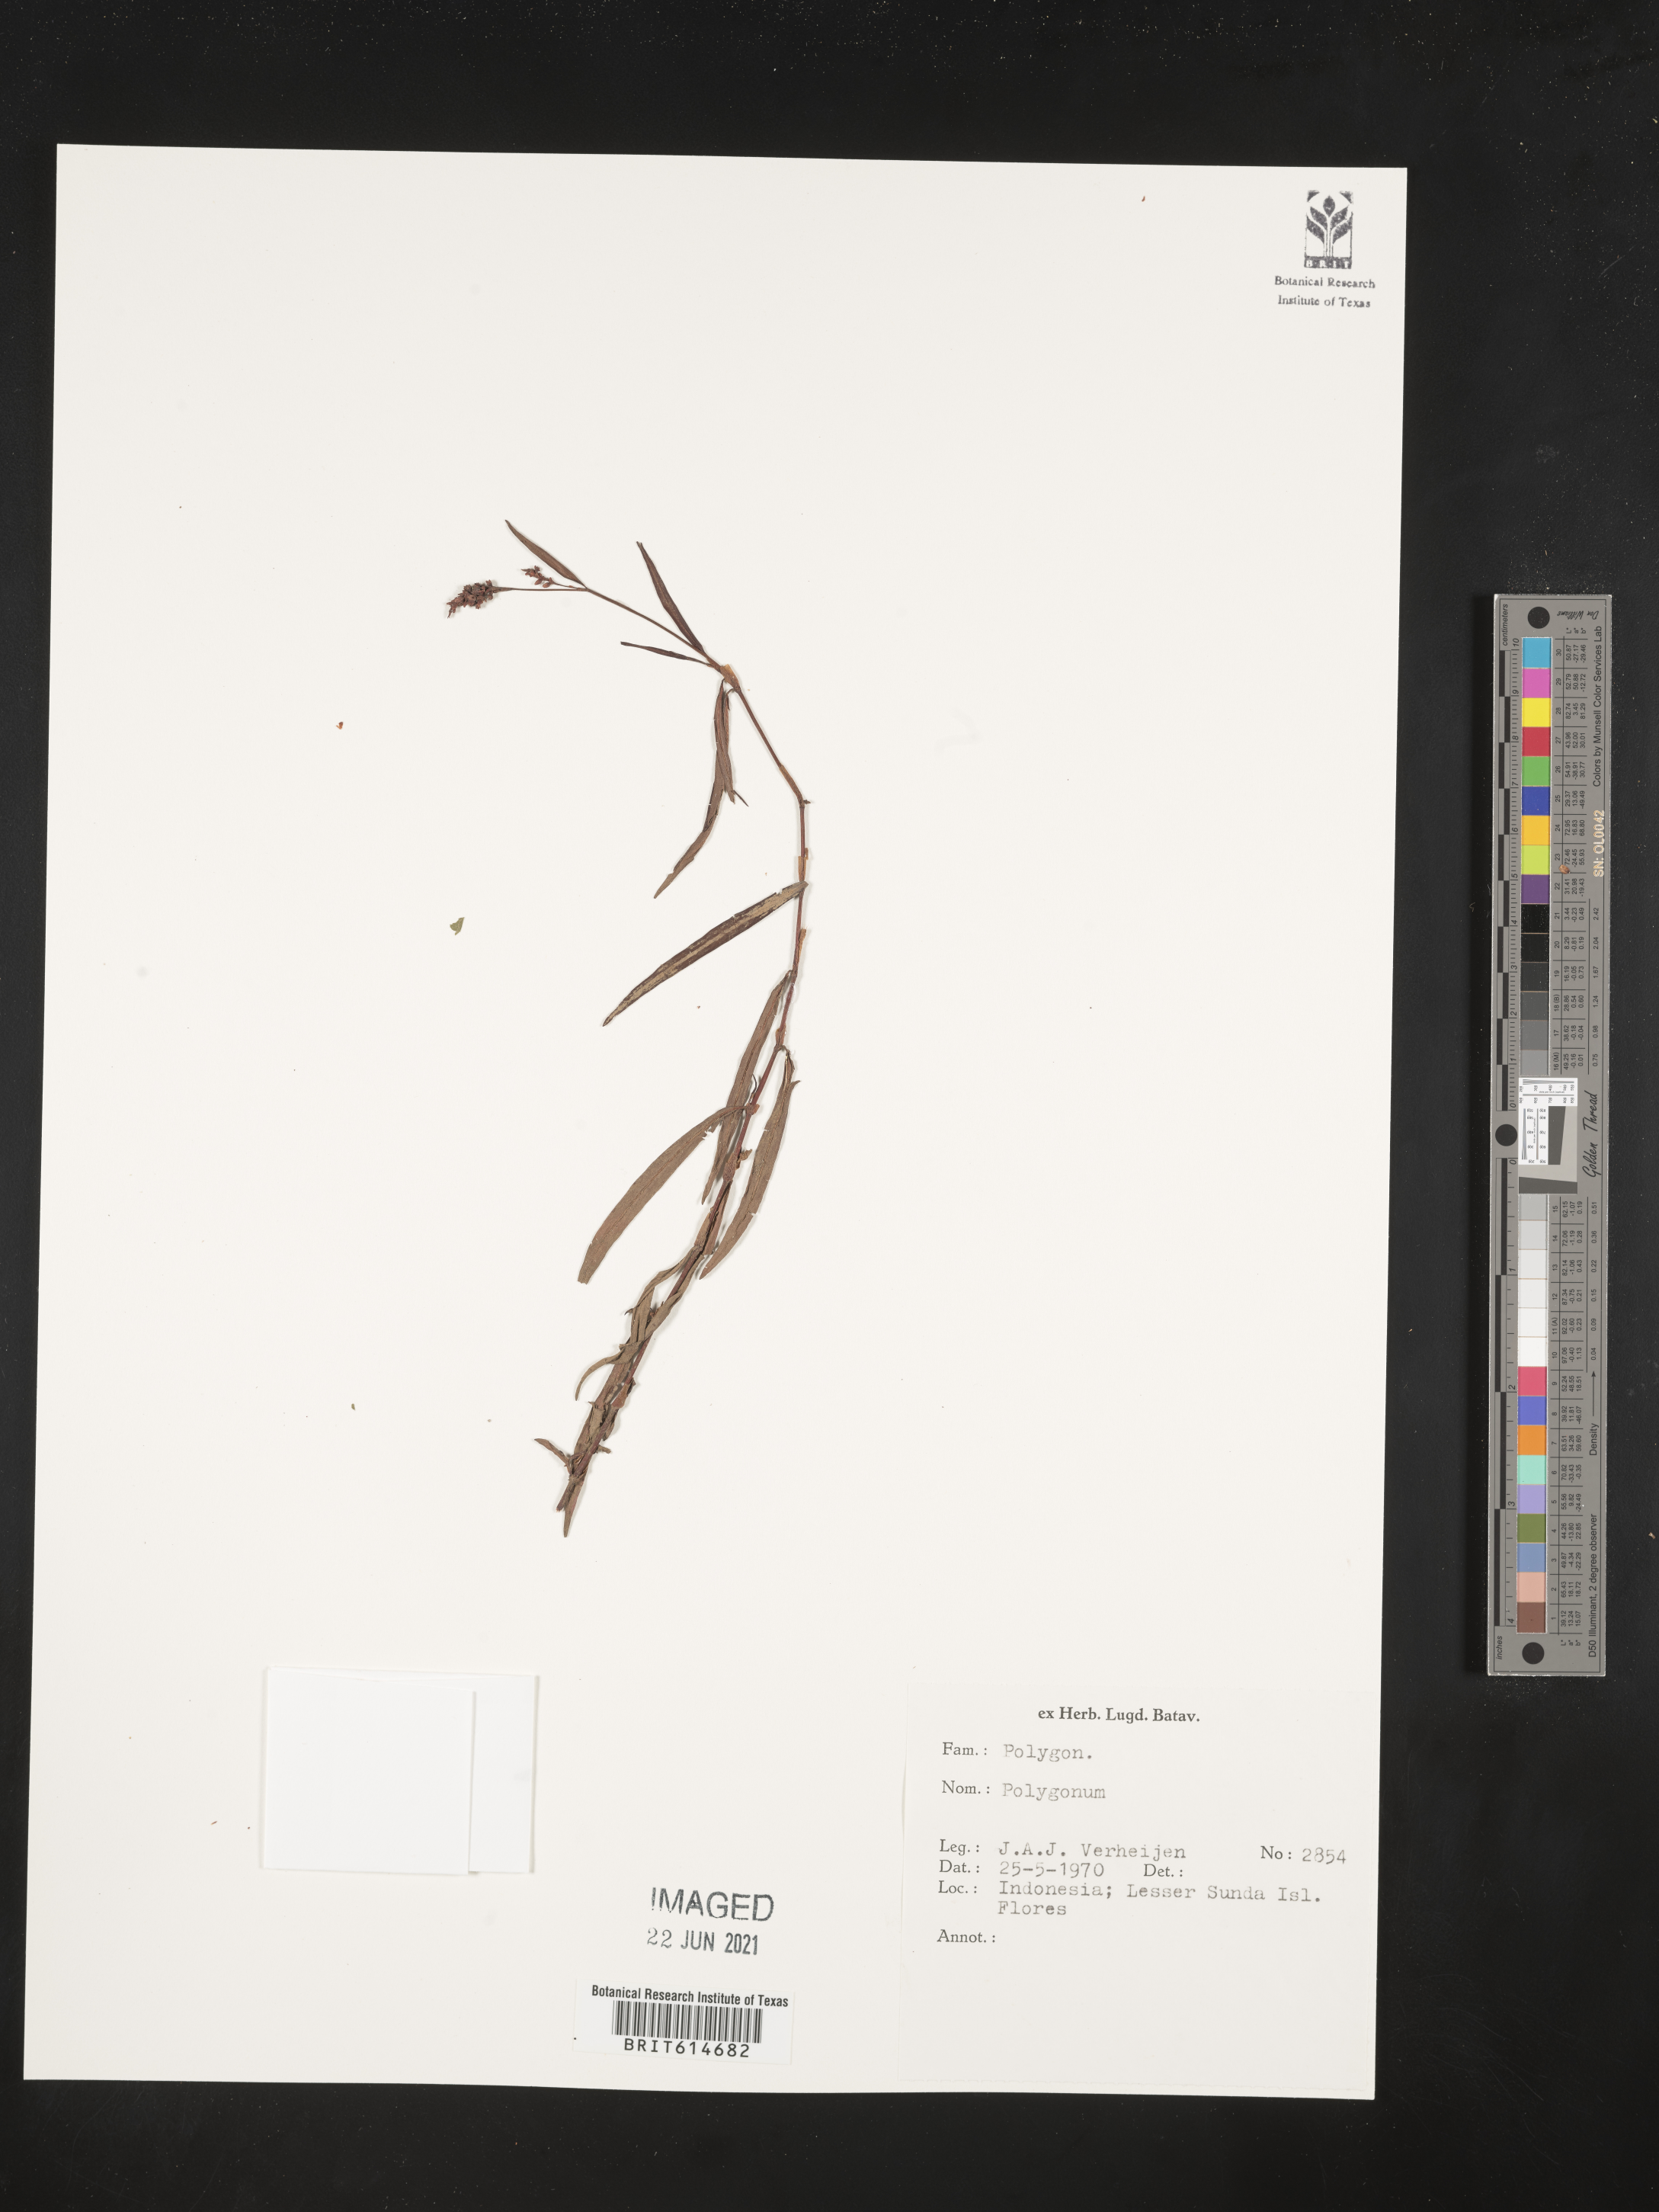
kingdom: Plantae
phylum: Tracheophyta
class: Magnoliopsida
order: Caryophyllales
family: Polygonaceae
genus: Polygonum
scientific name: Polygonum
